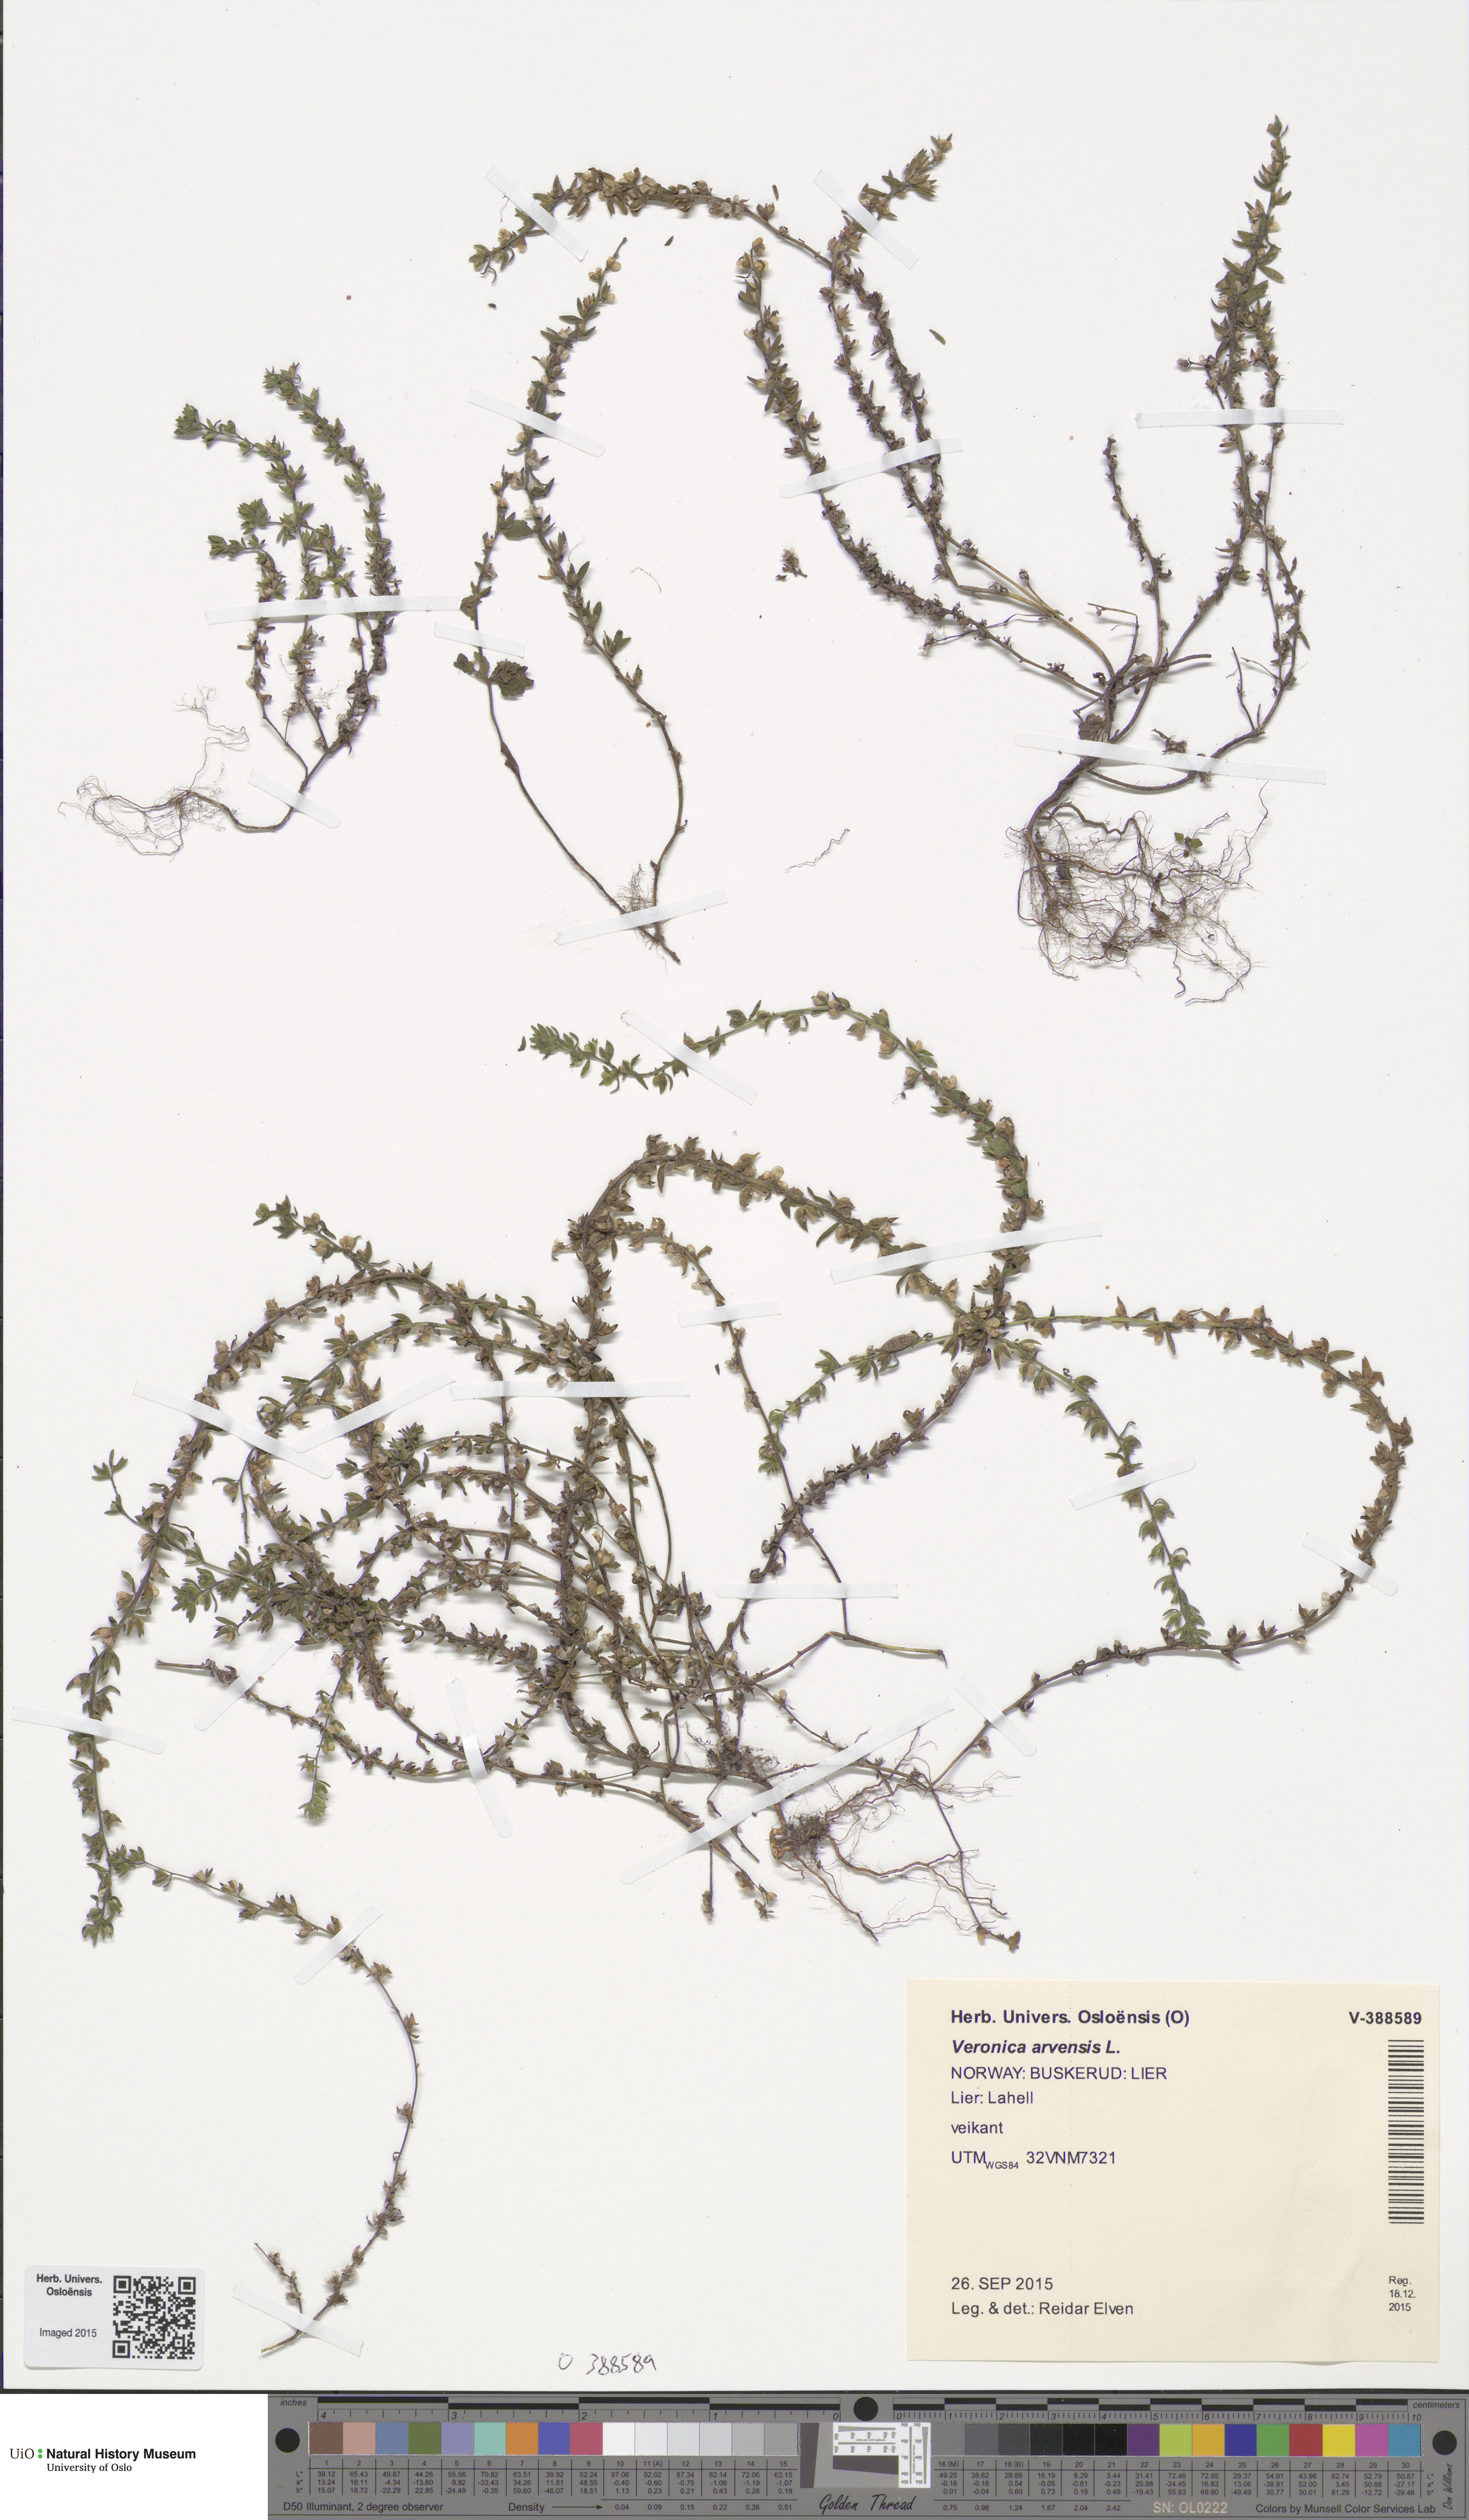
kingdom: Plantae
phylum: Tracheophyta
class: Magnoliopsida
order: Lamiales
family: Plantaginaceae
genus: Veronica
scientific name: Veronica arvensis
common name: Corn speedwell
